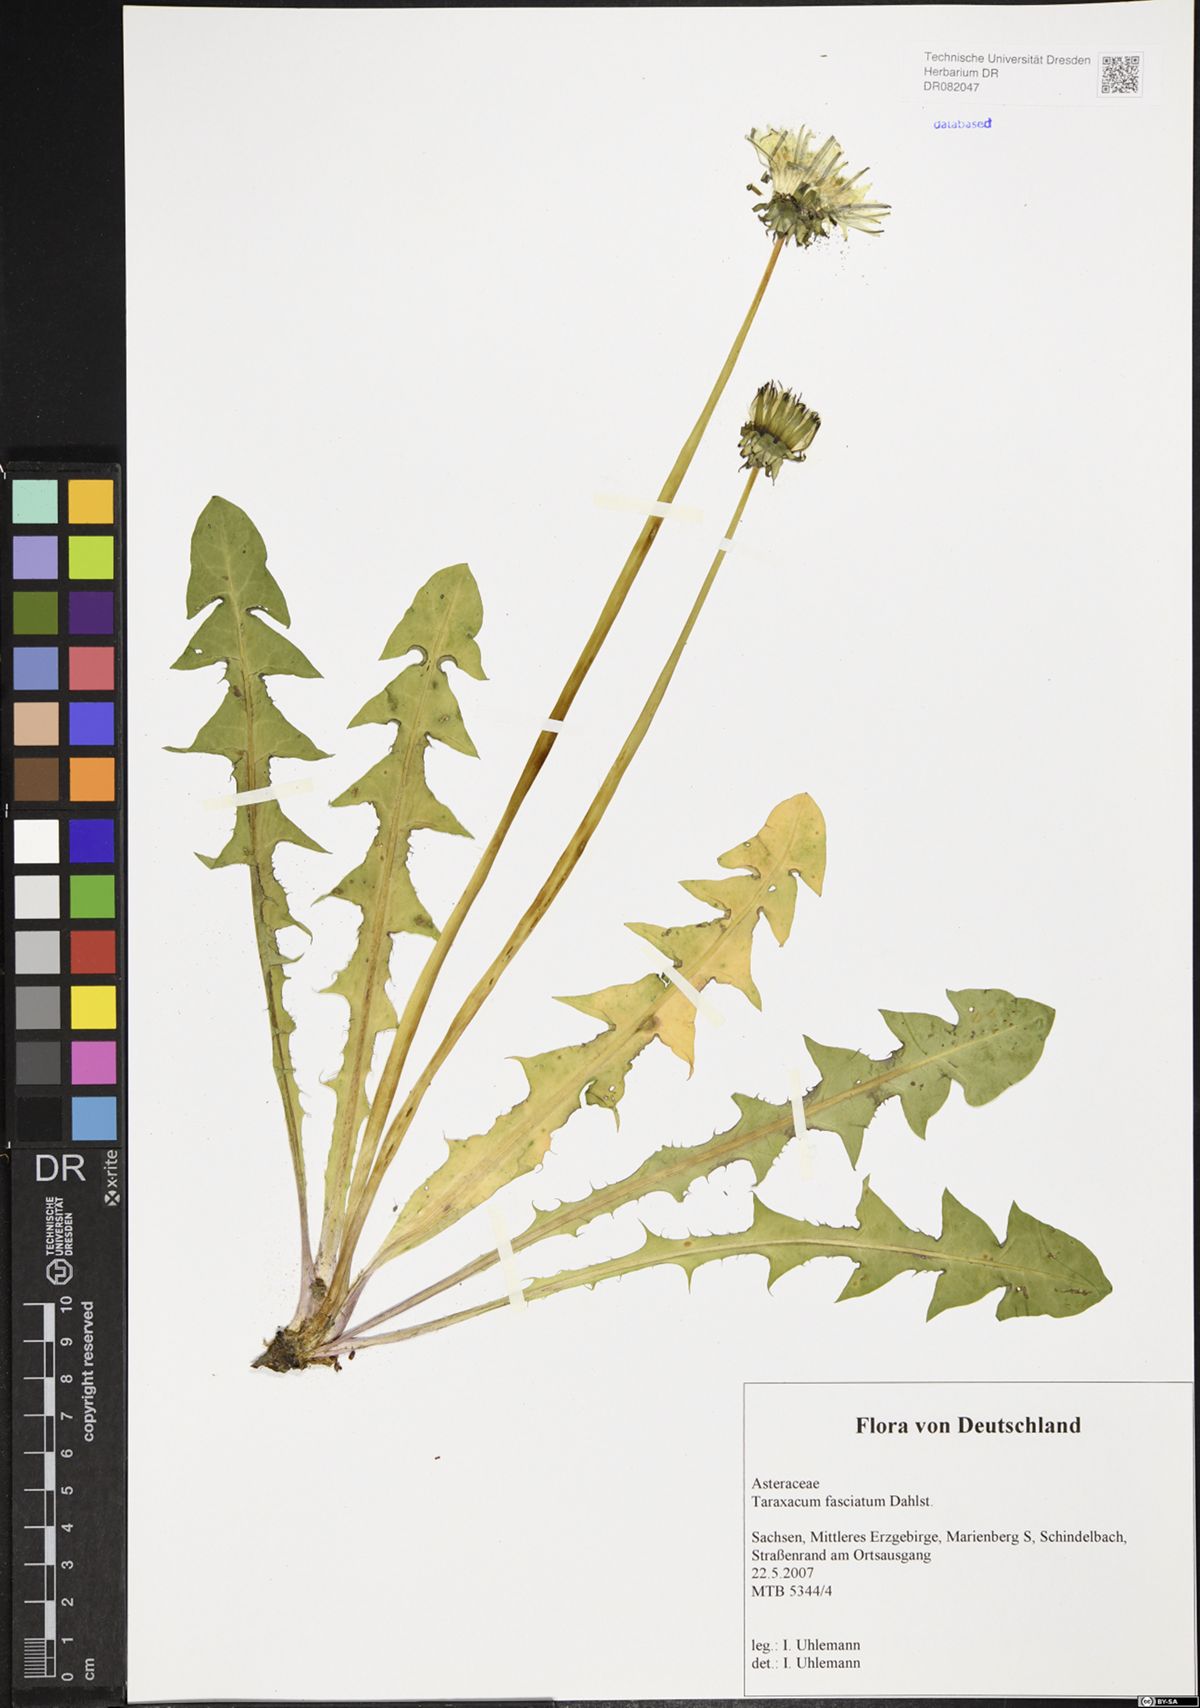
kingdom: Plantae
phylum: Tracheophyta
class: Magnoliopsida
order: Asterales
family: Asteraceae
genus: Taraxacum
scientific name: Taraxacum fasciatum
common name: Dense-bracted dandelion
